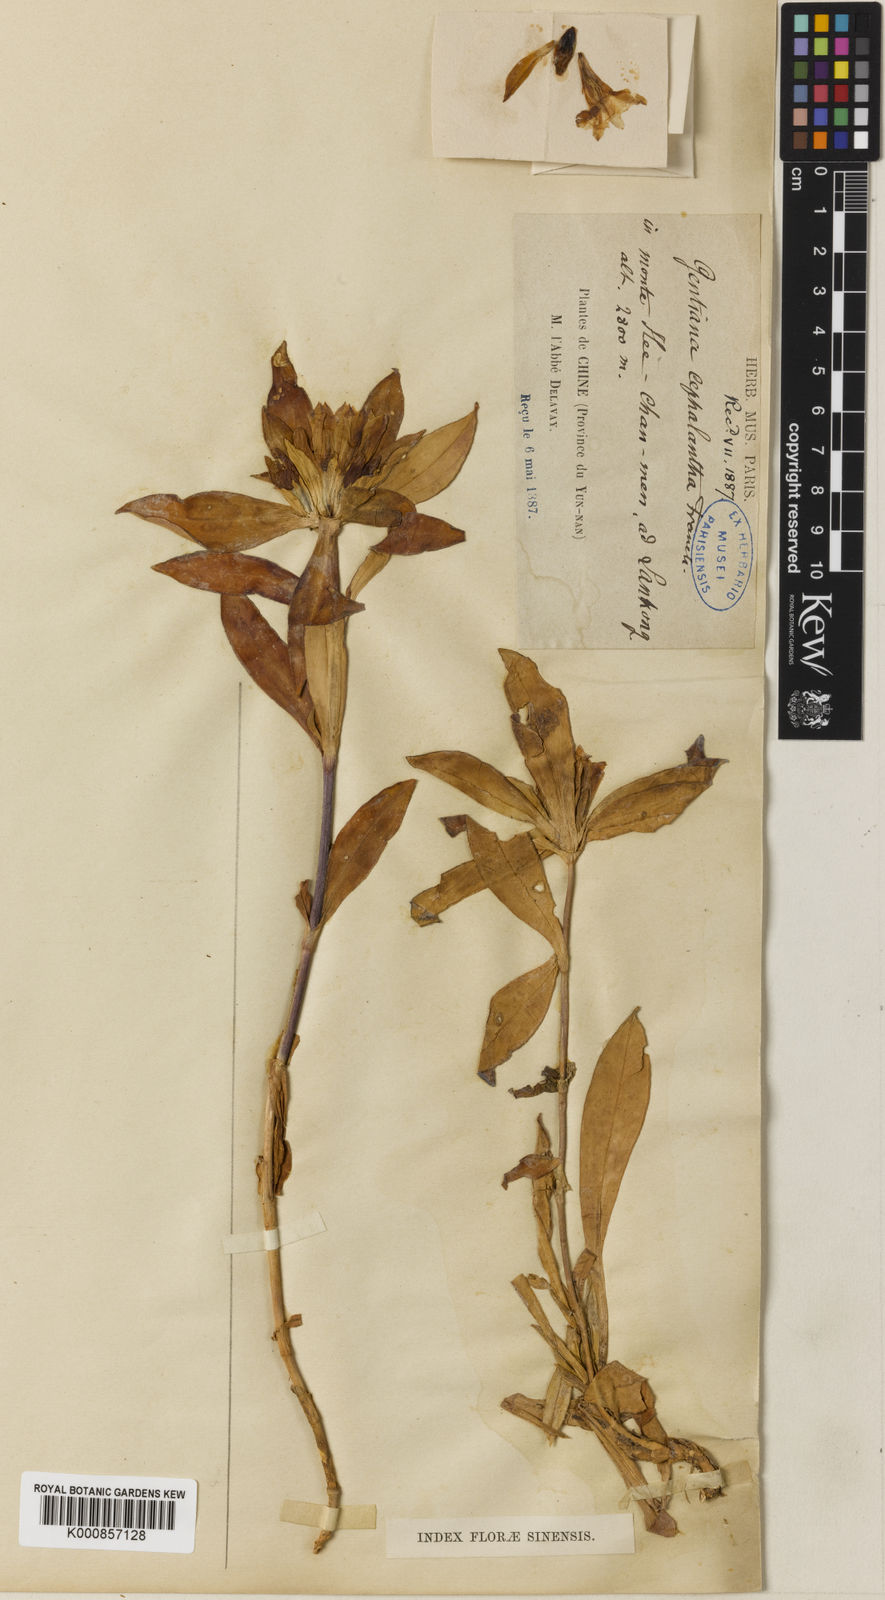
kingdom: Plantae
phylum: Tracheophyta
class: Magnoliopsida
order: Gentianales
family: Gentianaceae
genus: Gentiana
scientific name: Gentiana cephalantha
